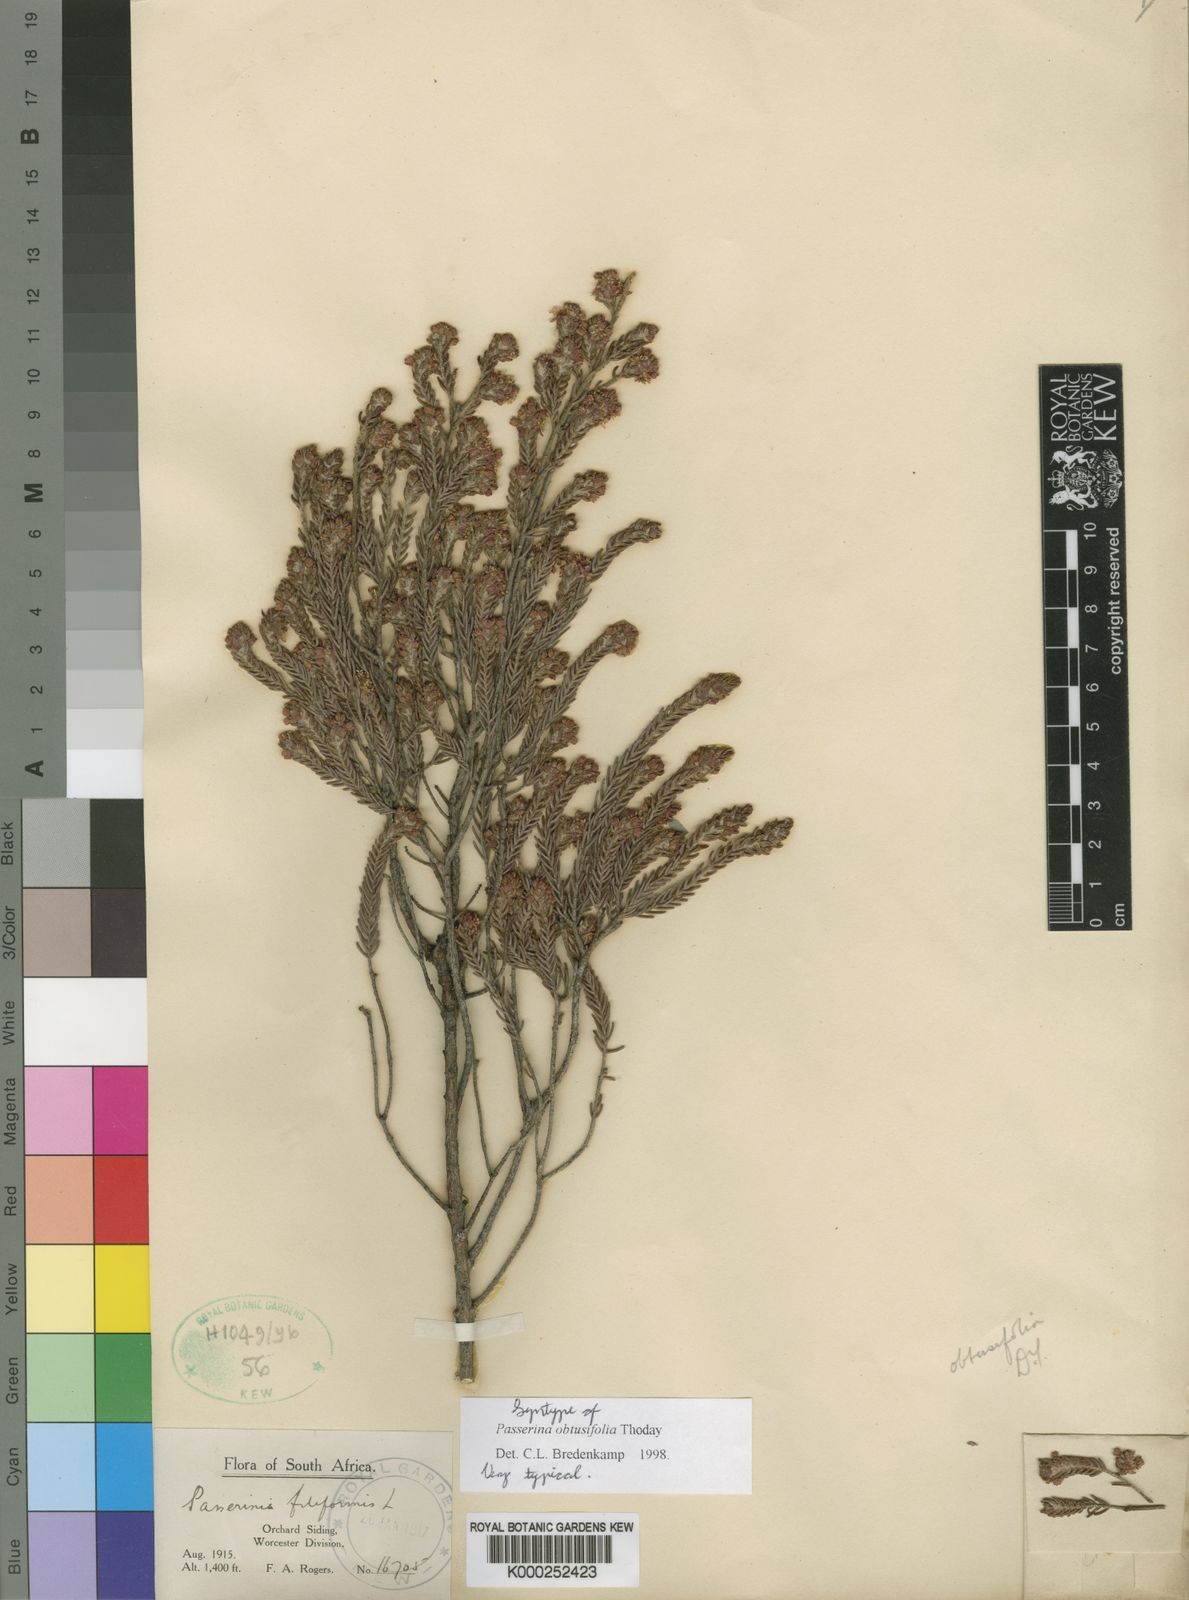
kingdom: Plantae
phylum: Tracheophyta
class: Magnoliopsida
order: Malvales
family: Thymelaeaceae
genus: Passerina
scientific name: Passerina obtusifolia
